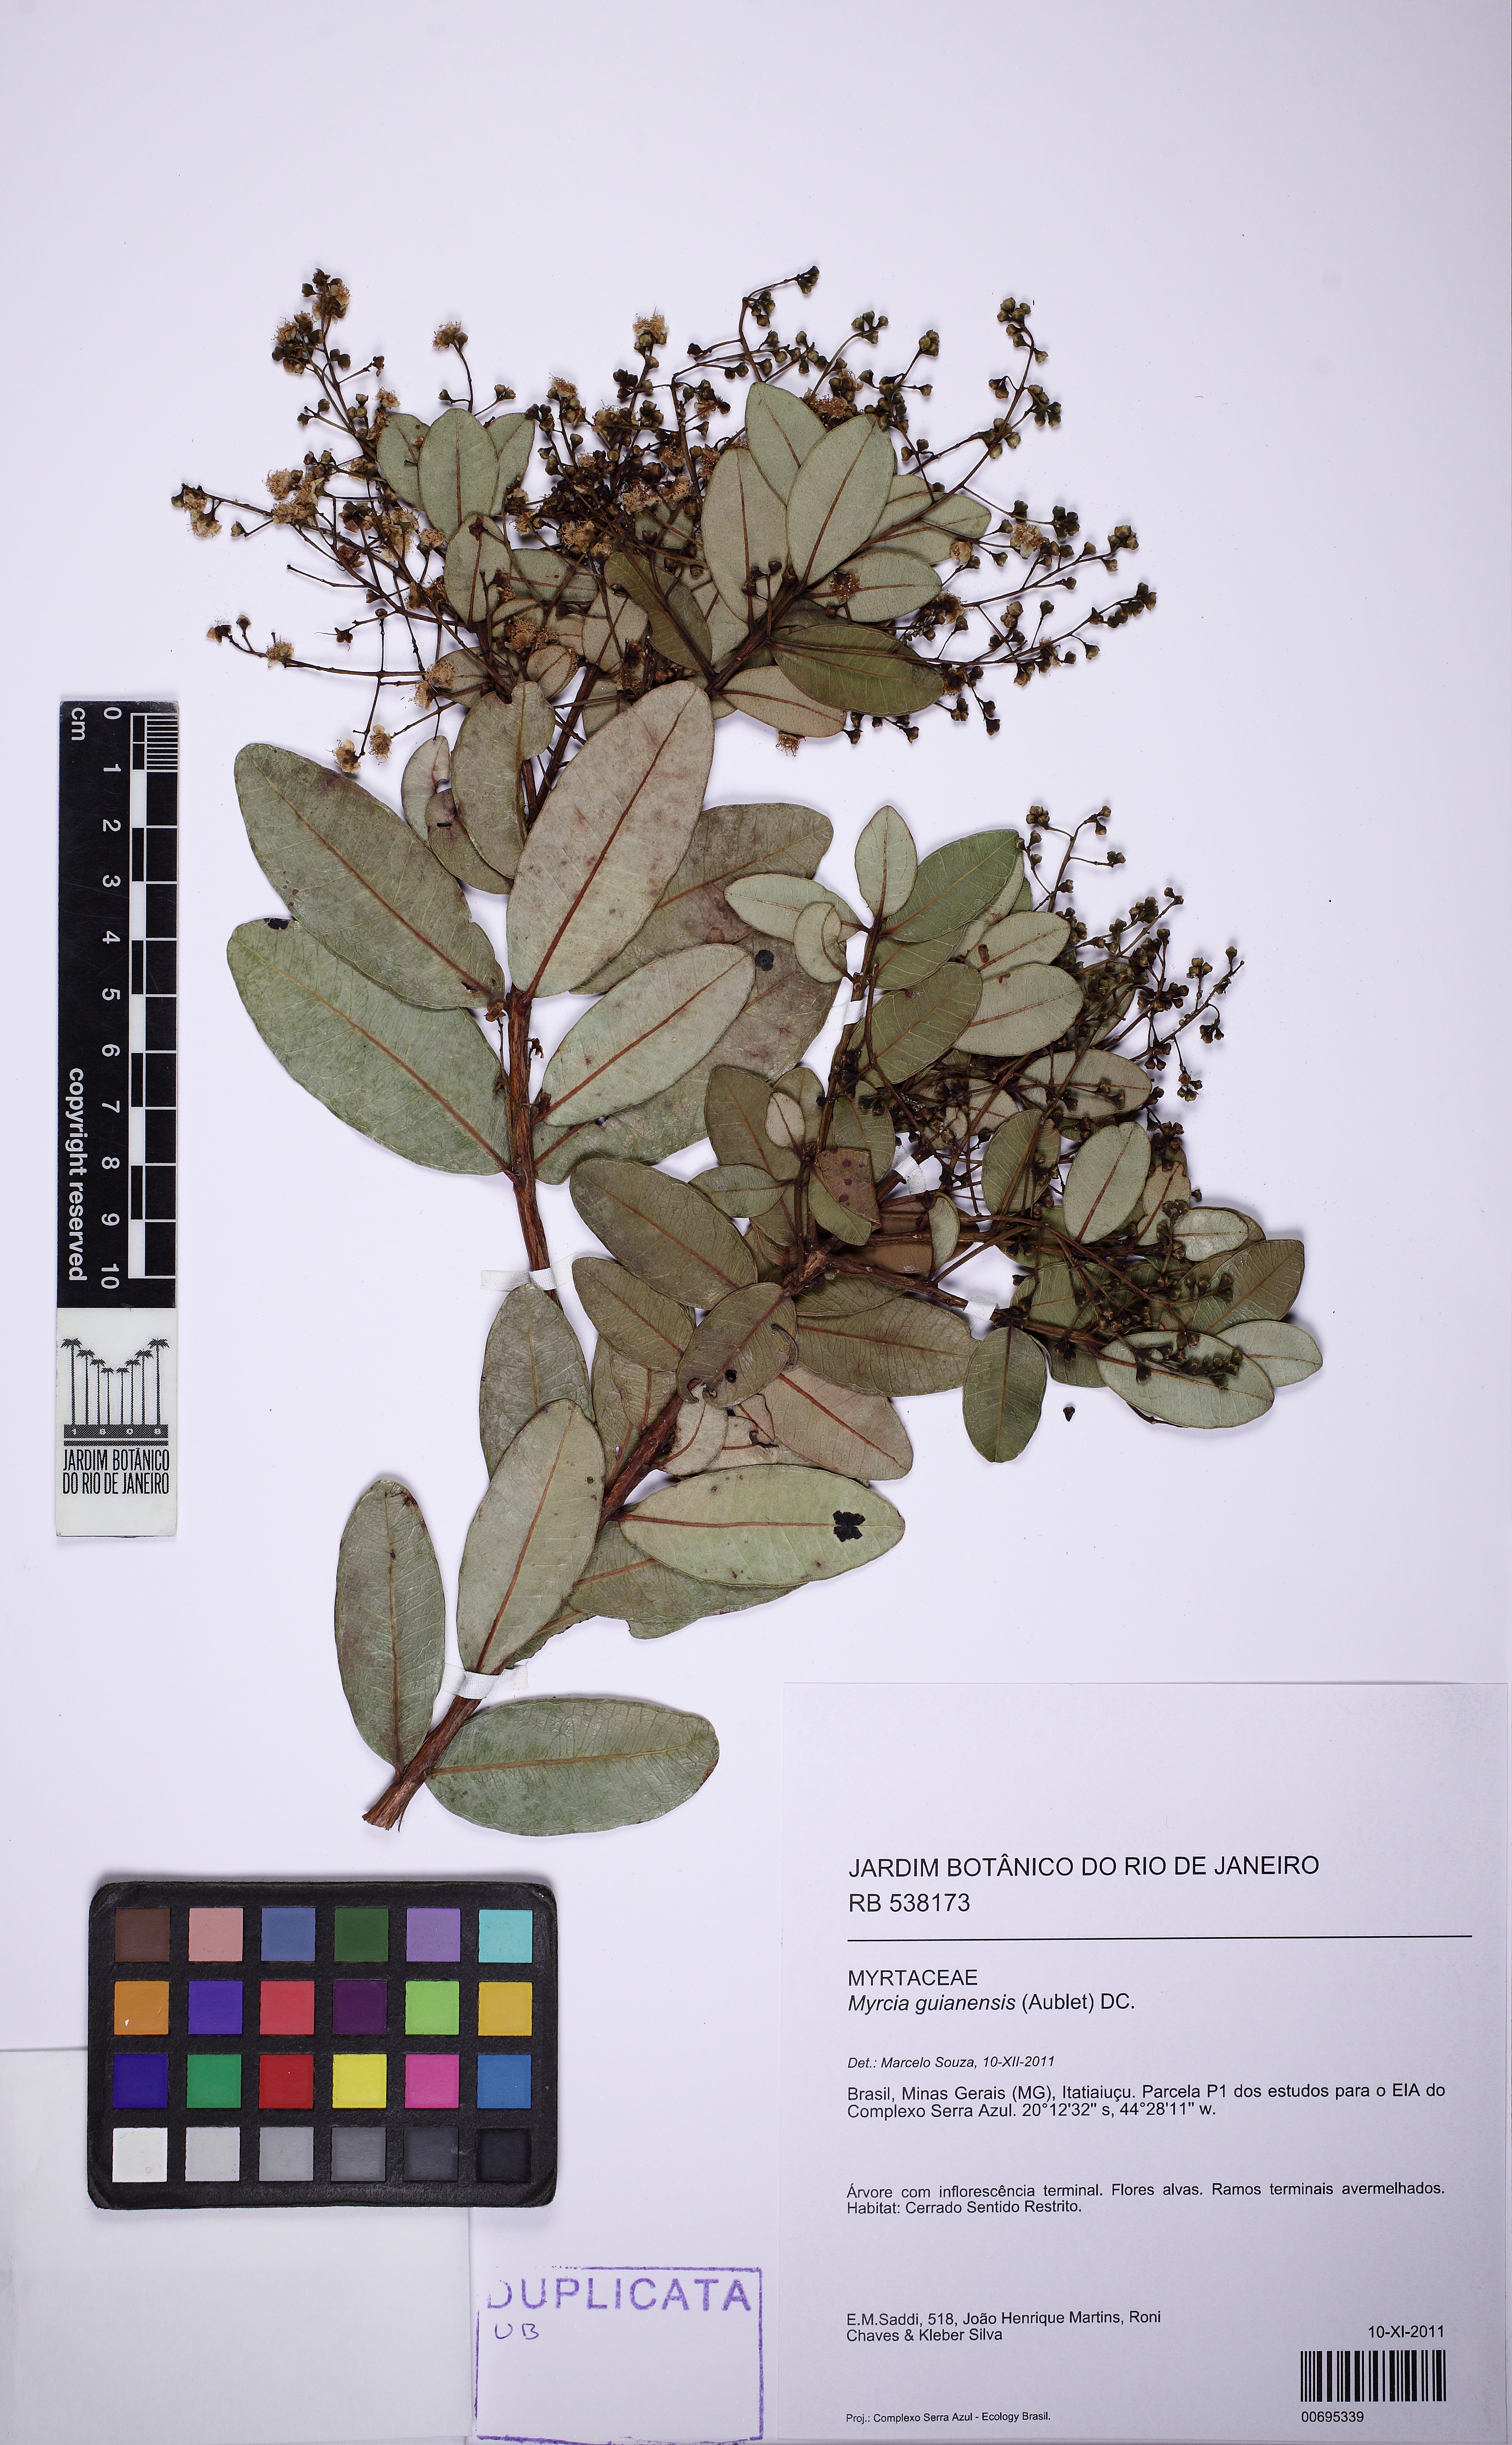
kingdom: Plantae
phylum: Tracheophyta
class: Magnoliopsida
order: Myrtales
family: Myrtaceae
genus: Myrcia
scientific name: Myrcia variabilis
